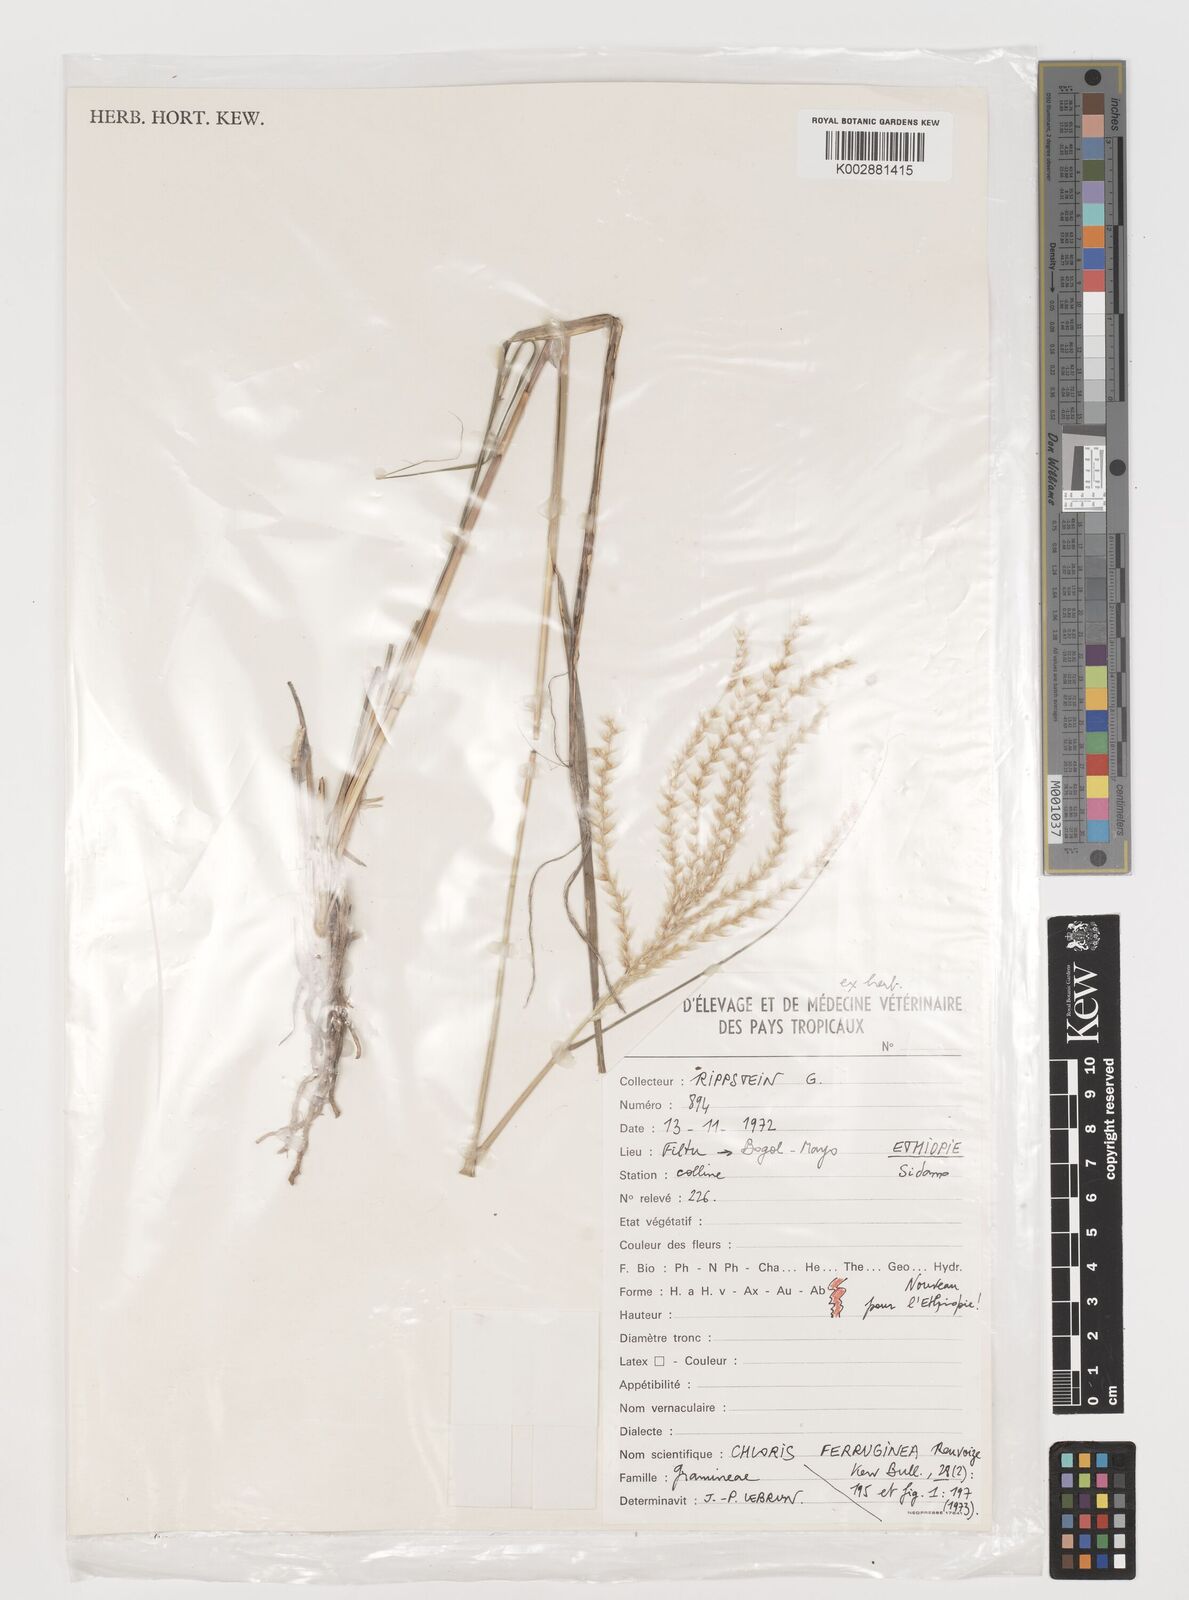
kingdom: Plantae
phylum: Tracheophyta
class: Liliopsida
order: Poales
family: Poaceae
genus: Tetrapogon
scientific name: Tetrapogon ferrugineus
